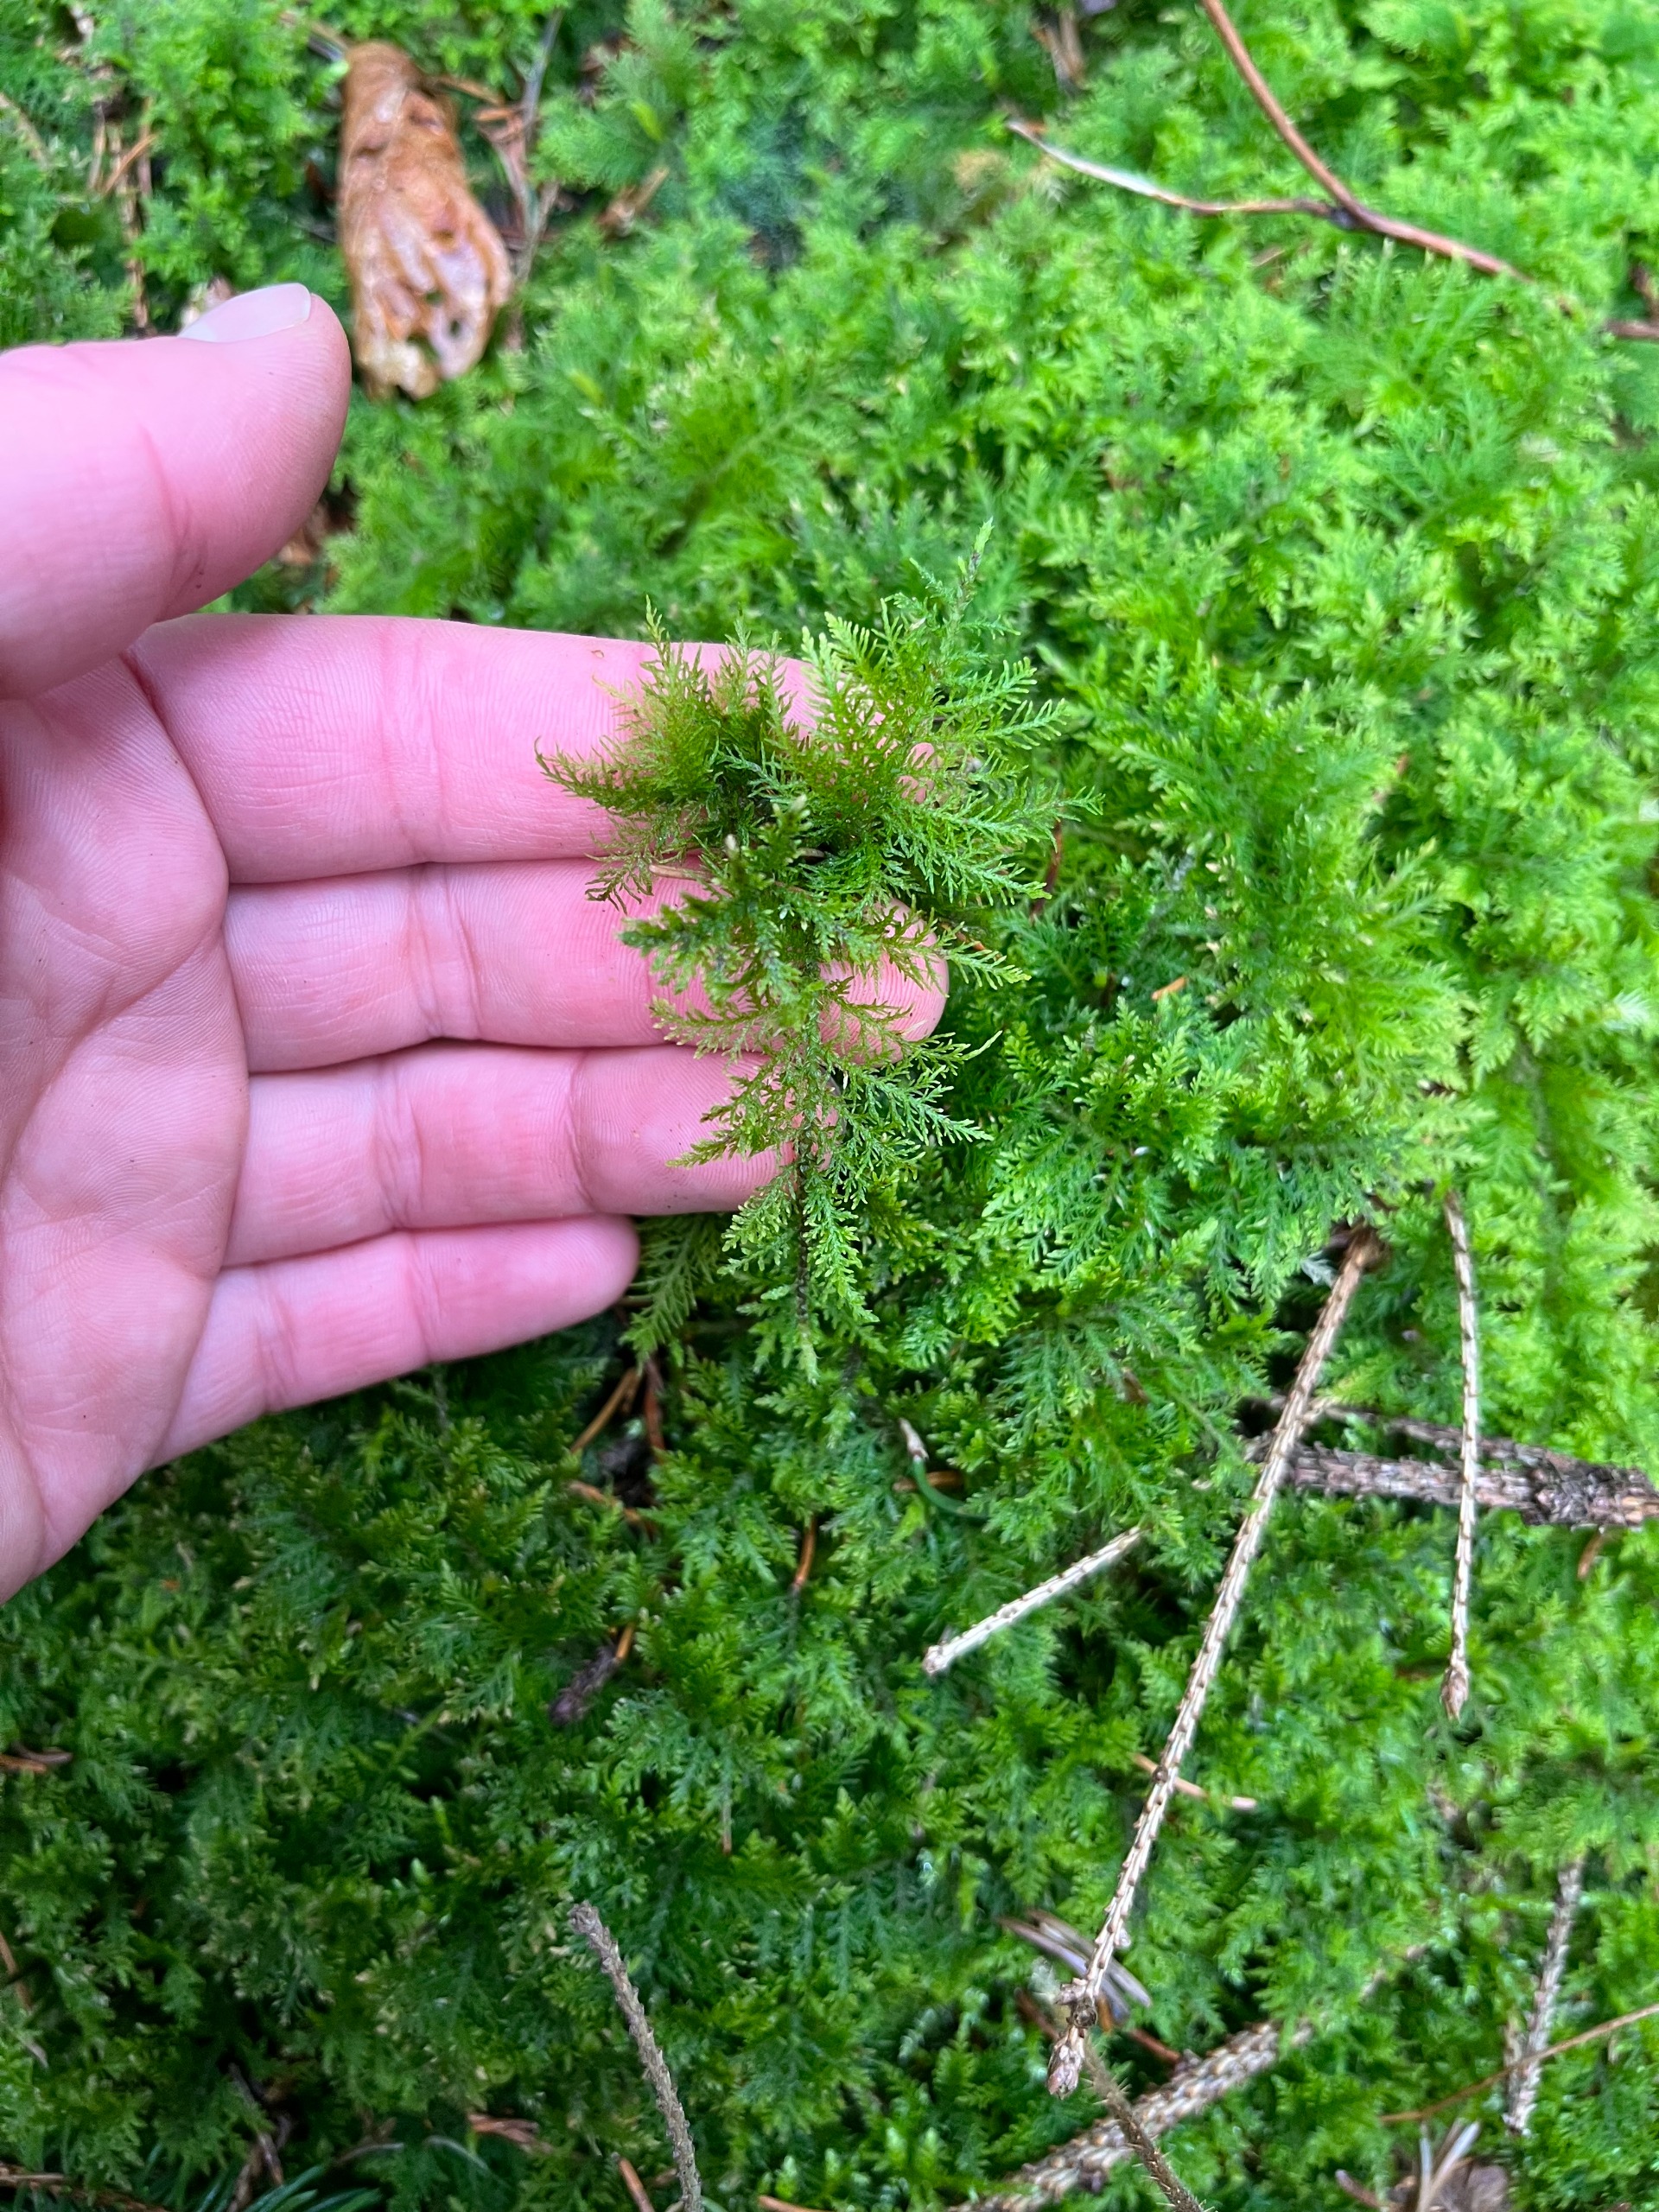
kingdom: Plantae
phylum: Bryophyta
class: Bryopsida
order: Hypnales
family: Thuidiaceae
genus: Thuidium
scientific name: Thuidium tamariscinum
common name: Pryd-bregnemos
